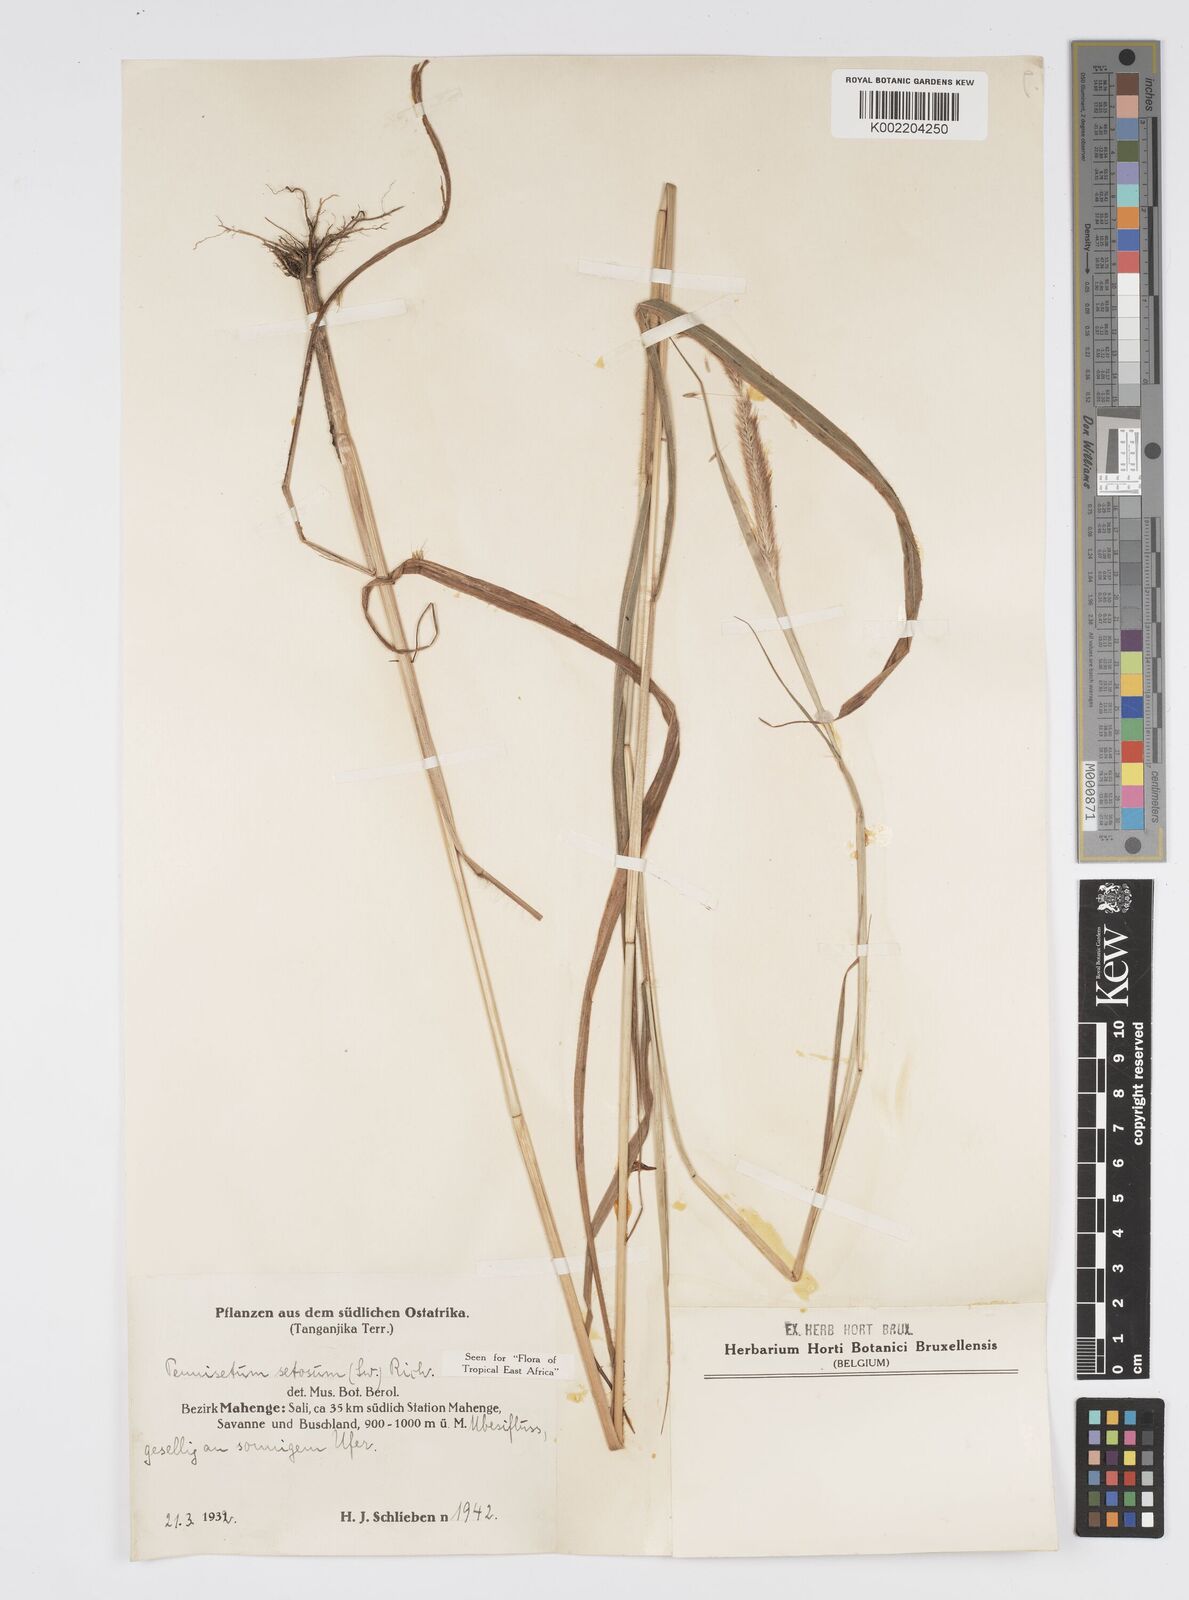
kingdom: Plantae
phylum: Tracheophyta
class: Liliopsida
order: Poales
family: Poaceae
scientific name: Poaceae
